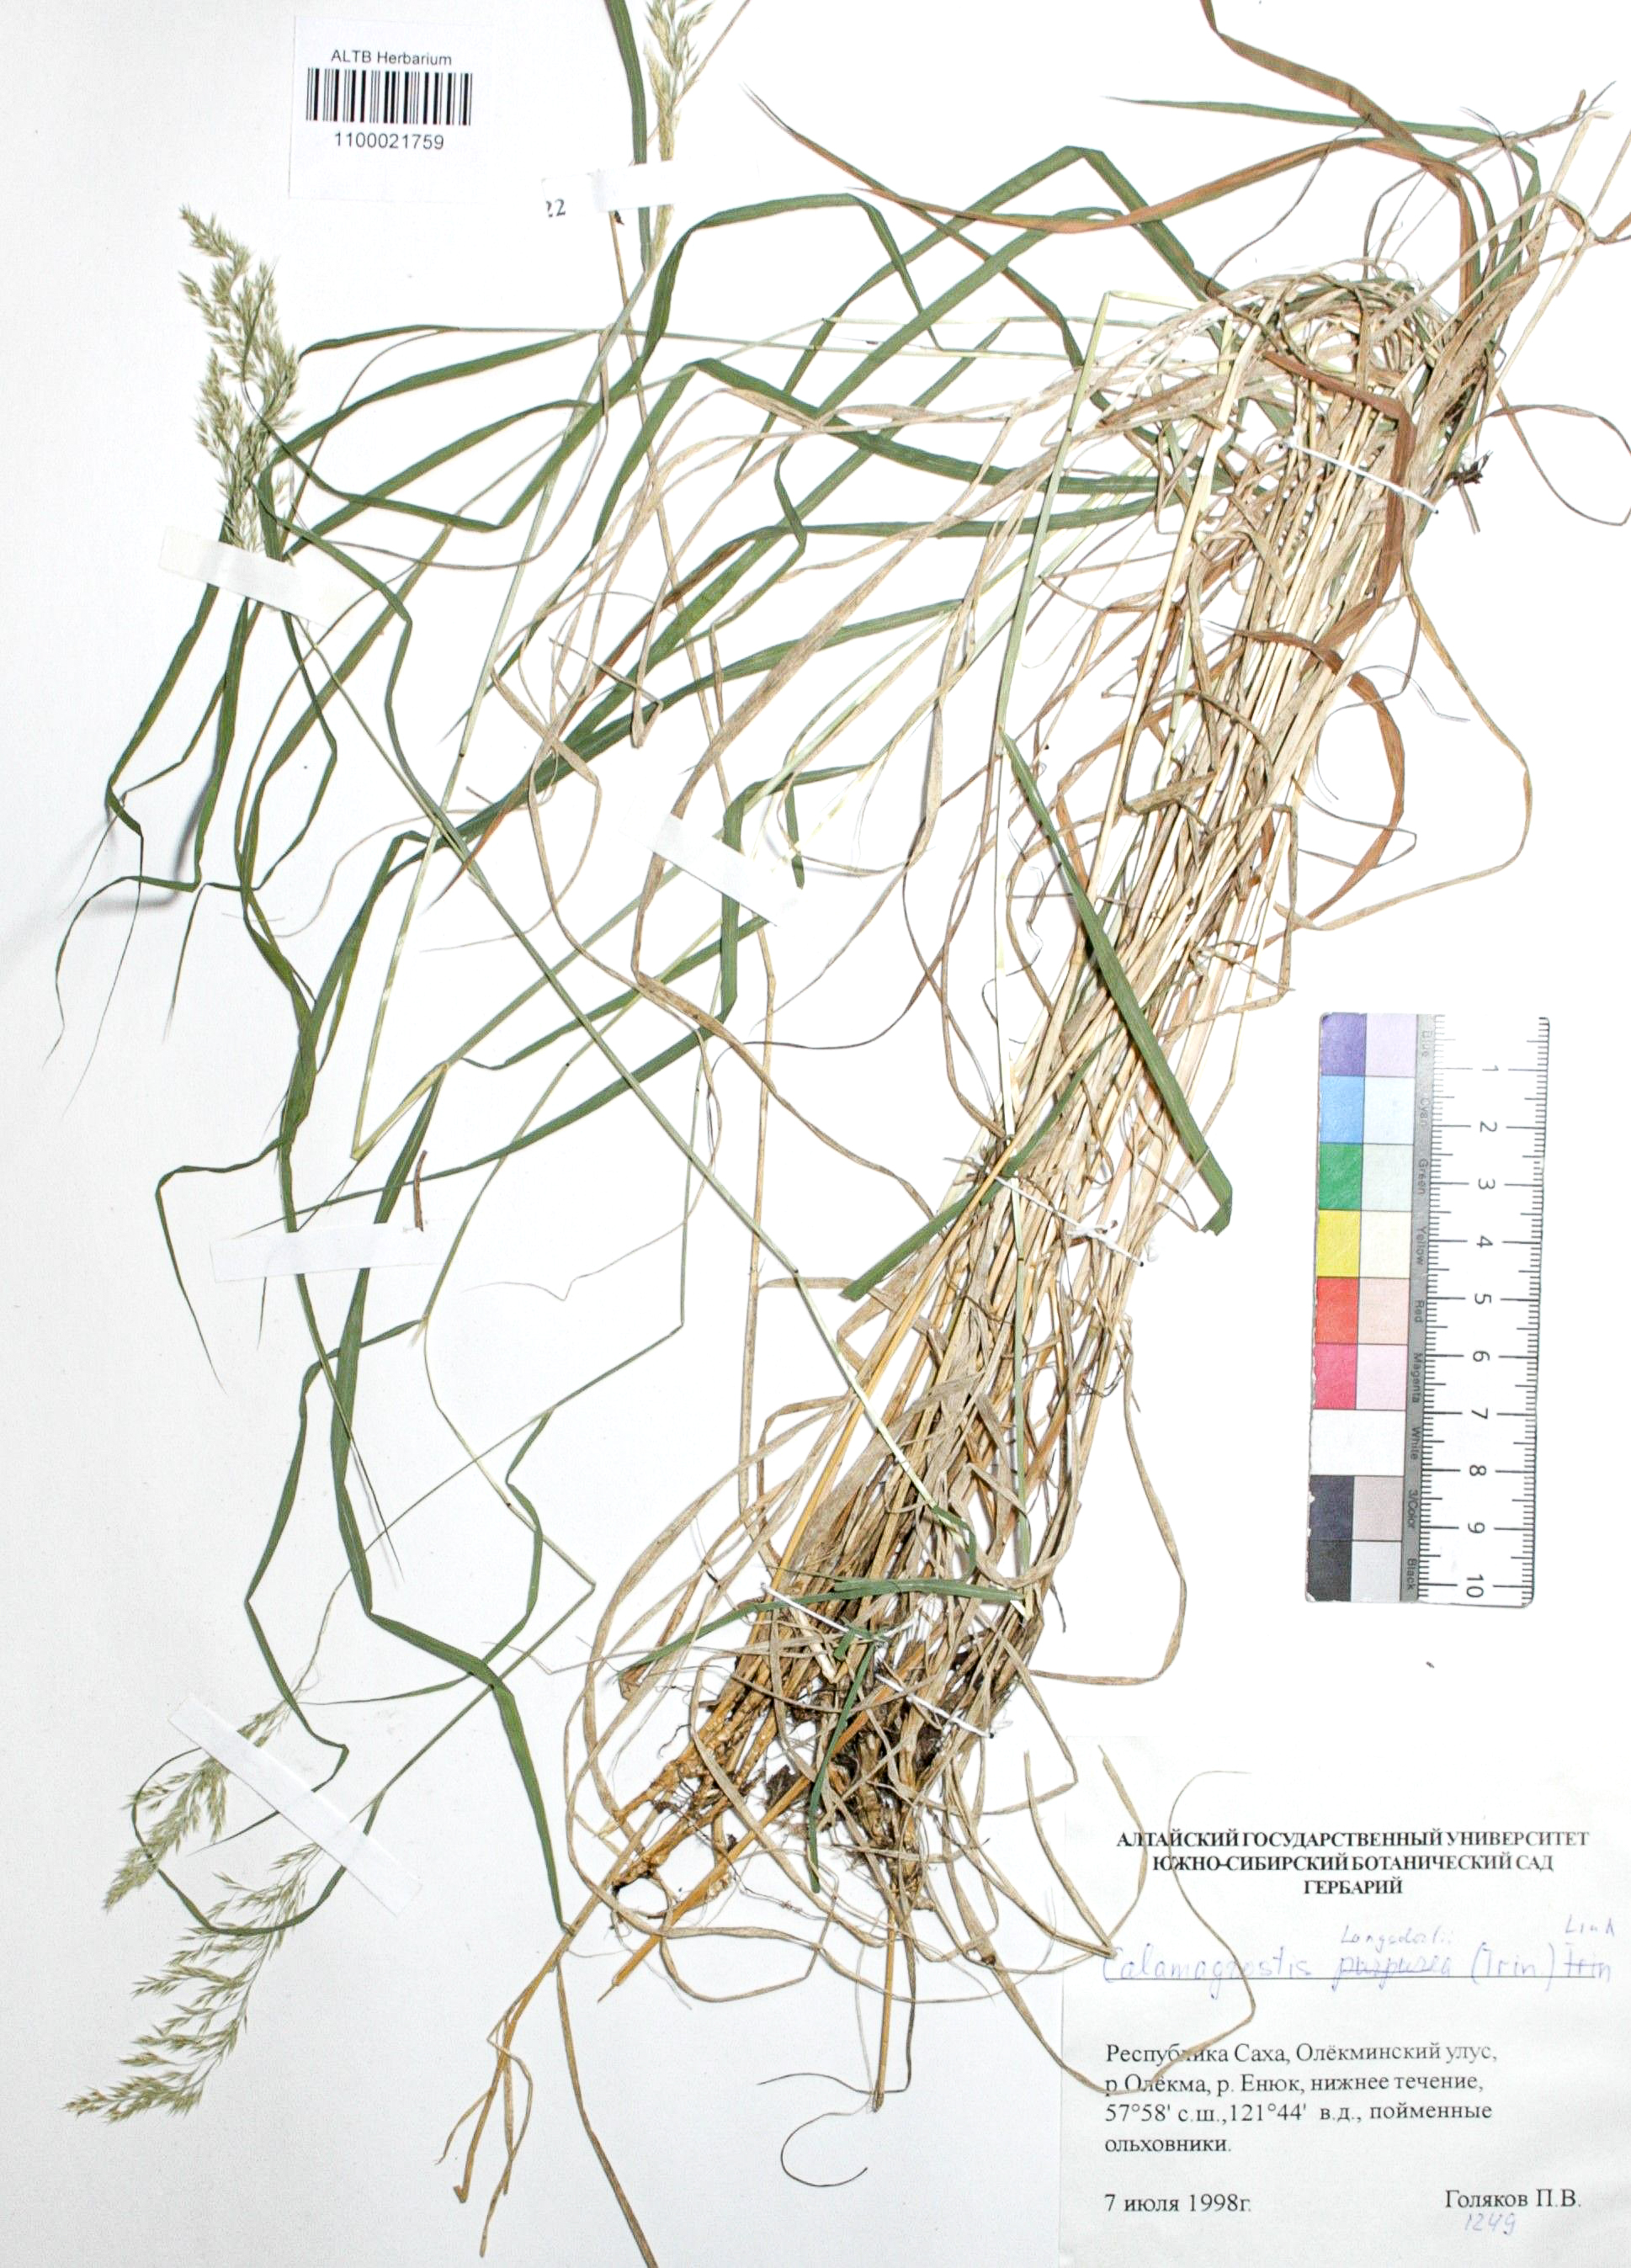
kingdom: Plantae
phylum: Tracheophyta
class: Liliopsida
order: Poales
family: Poaceae
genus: Calamagrostis
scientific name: Calamagrostis purpurea
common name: Scandinavian small-reed
